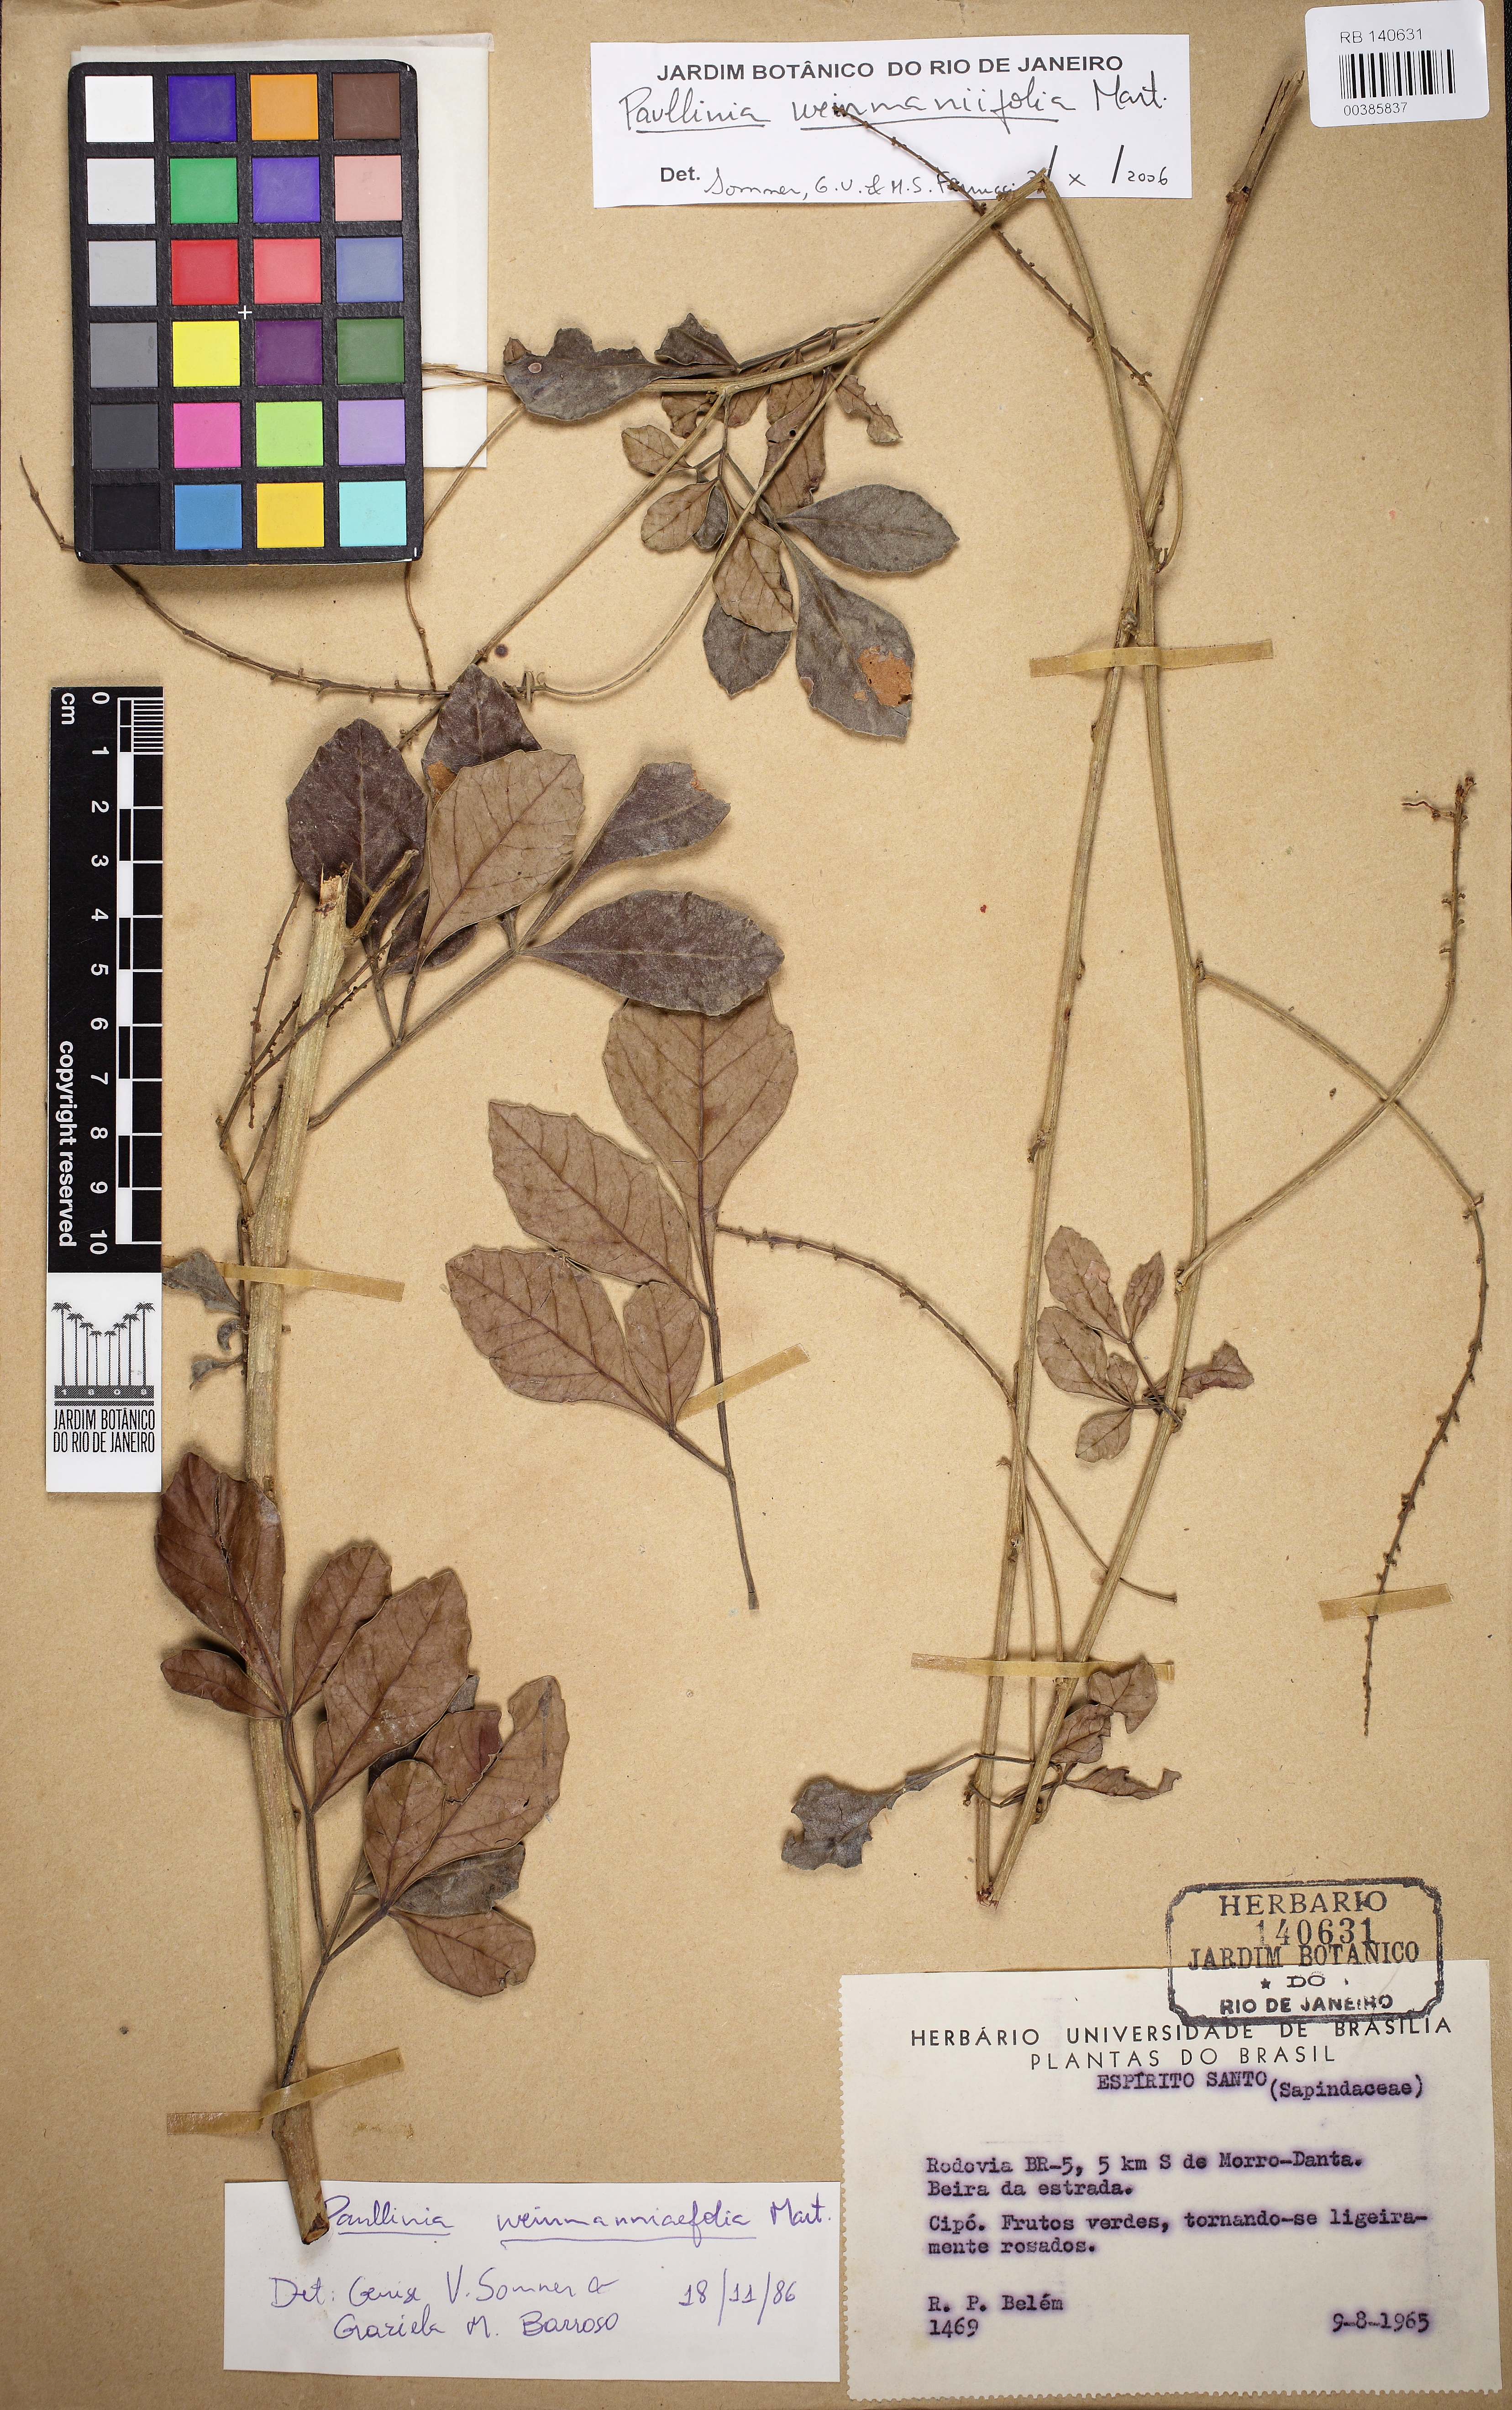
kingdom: Plantae
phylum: Tracheophyta
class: Magnoliopsida
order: Sapindales
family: Sapindaceae
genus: Paullinia
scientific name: Paullinia weinmanniifolia
